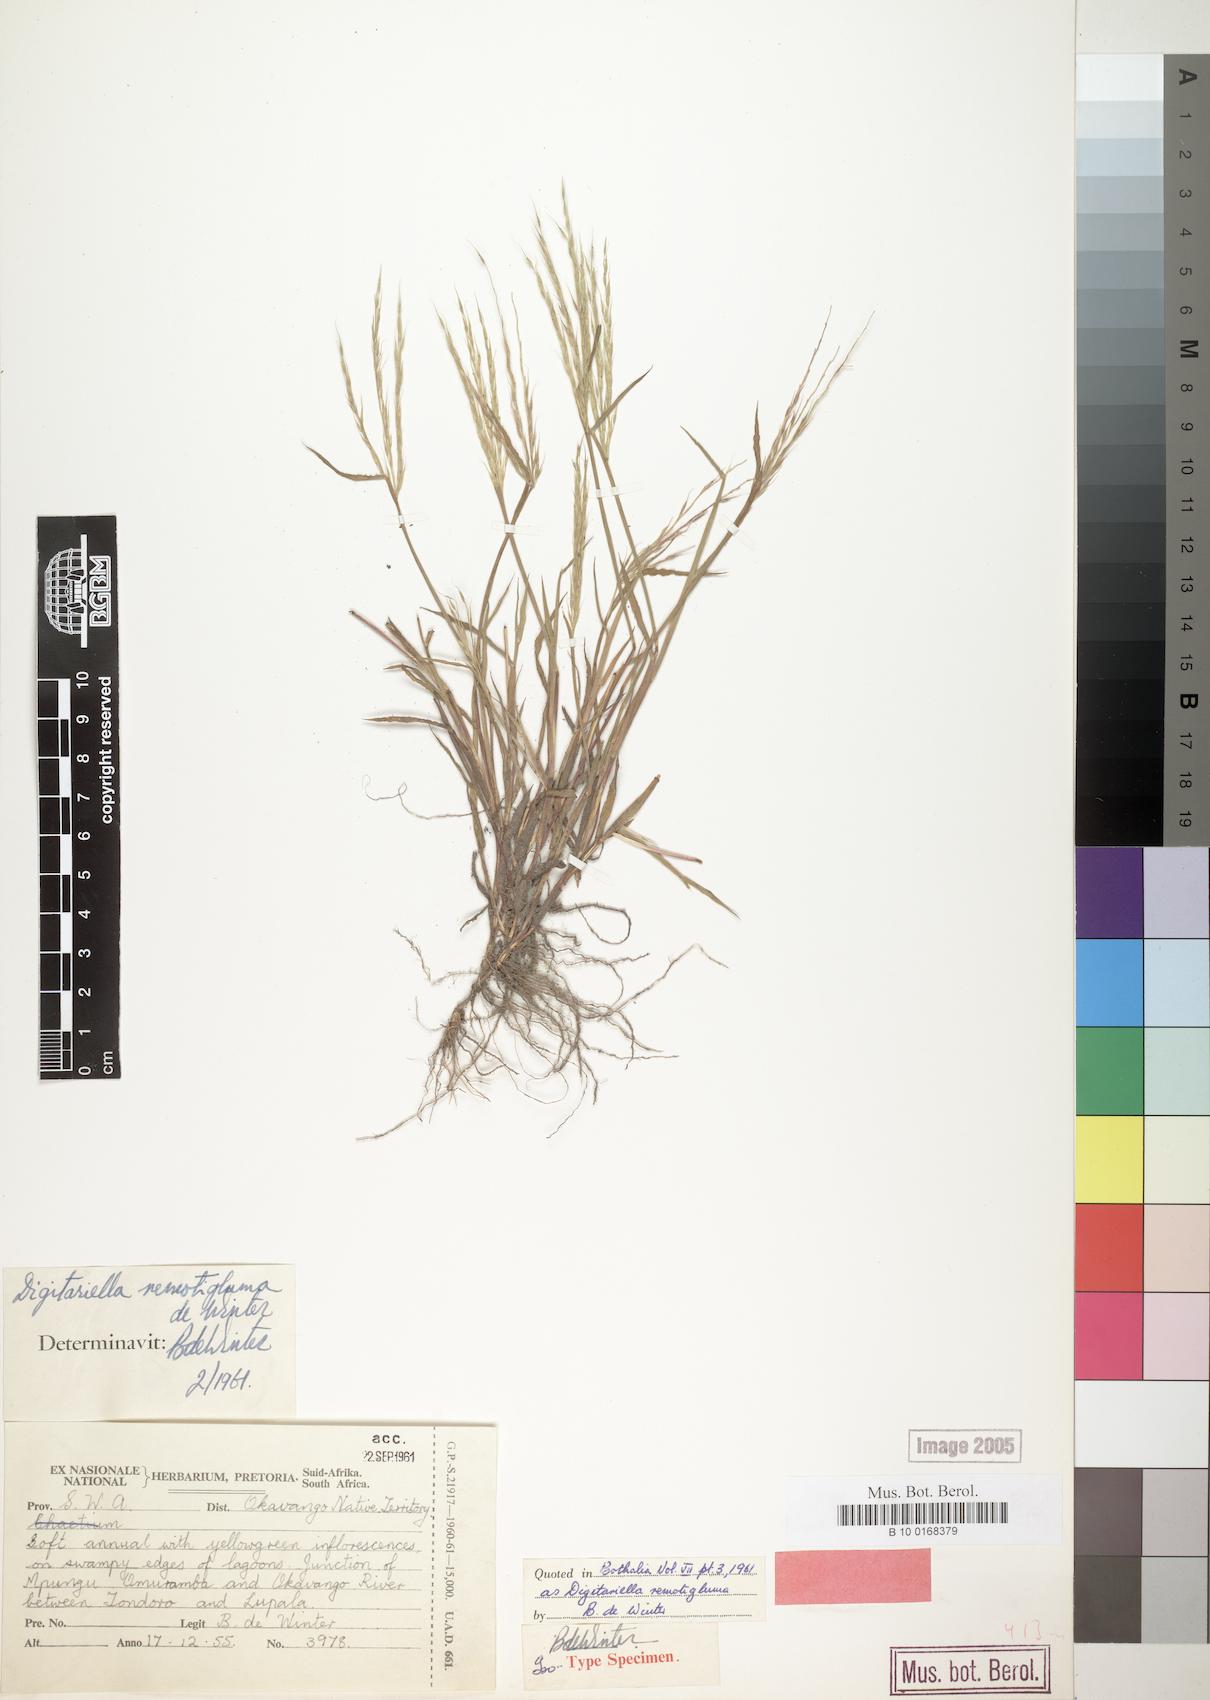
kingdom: Plantae
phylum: Tracheophyta
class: Liliopsida
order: Poales
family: Poaceae
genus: Digitaria
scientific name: Digitaria remotigluma
